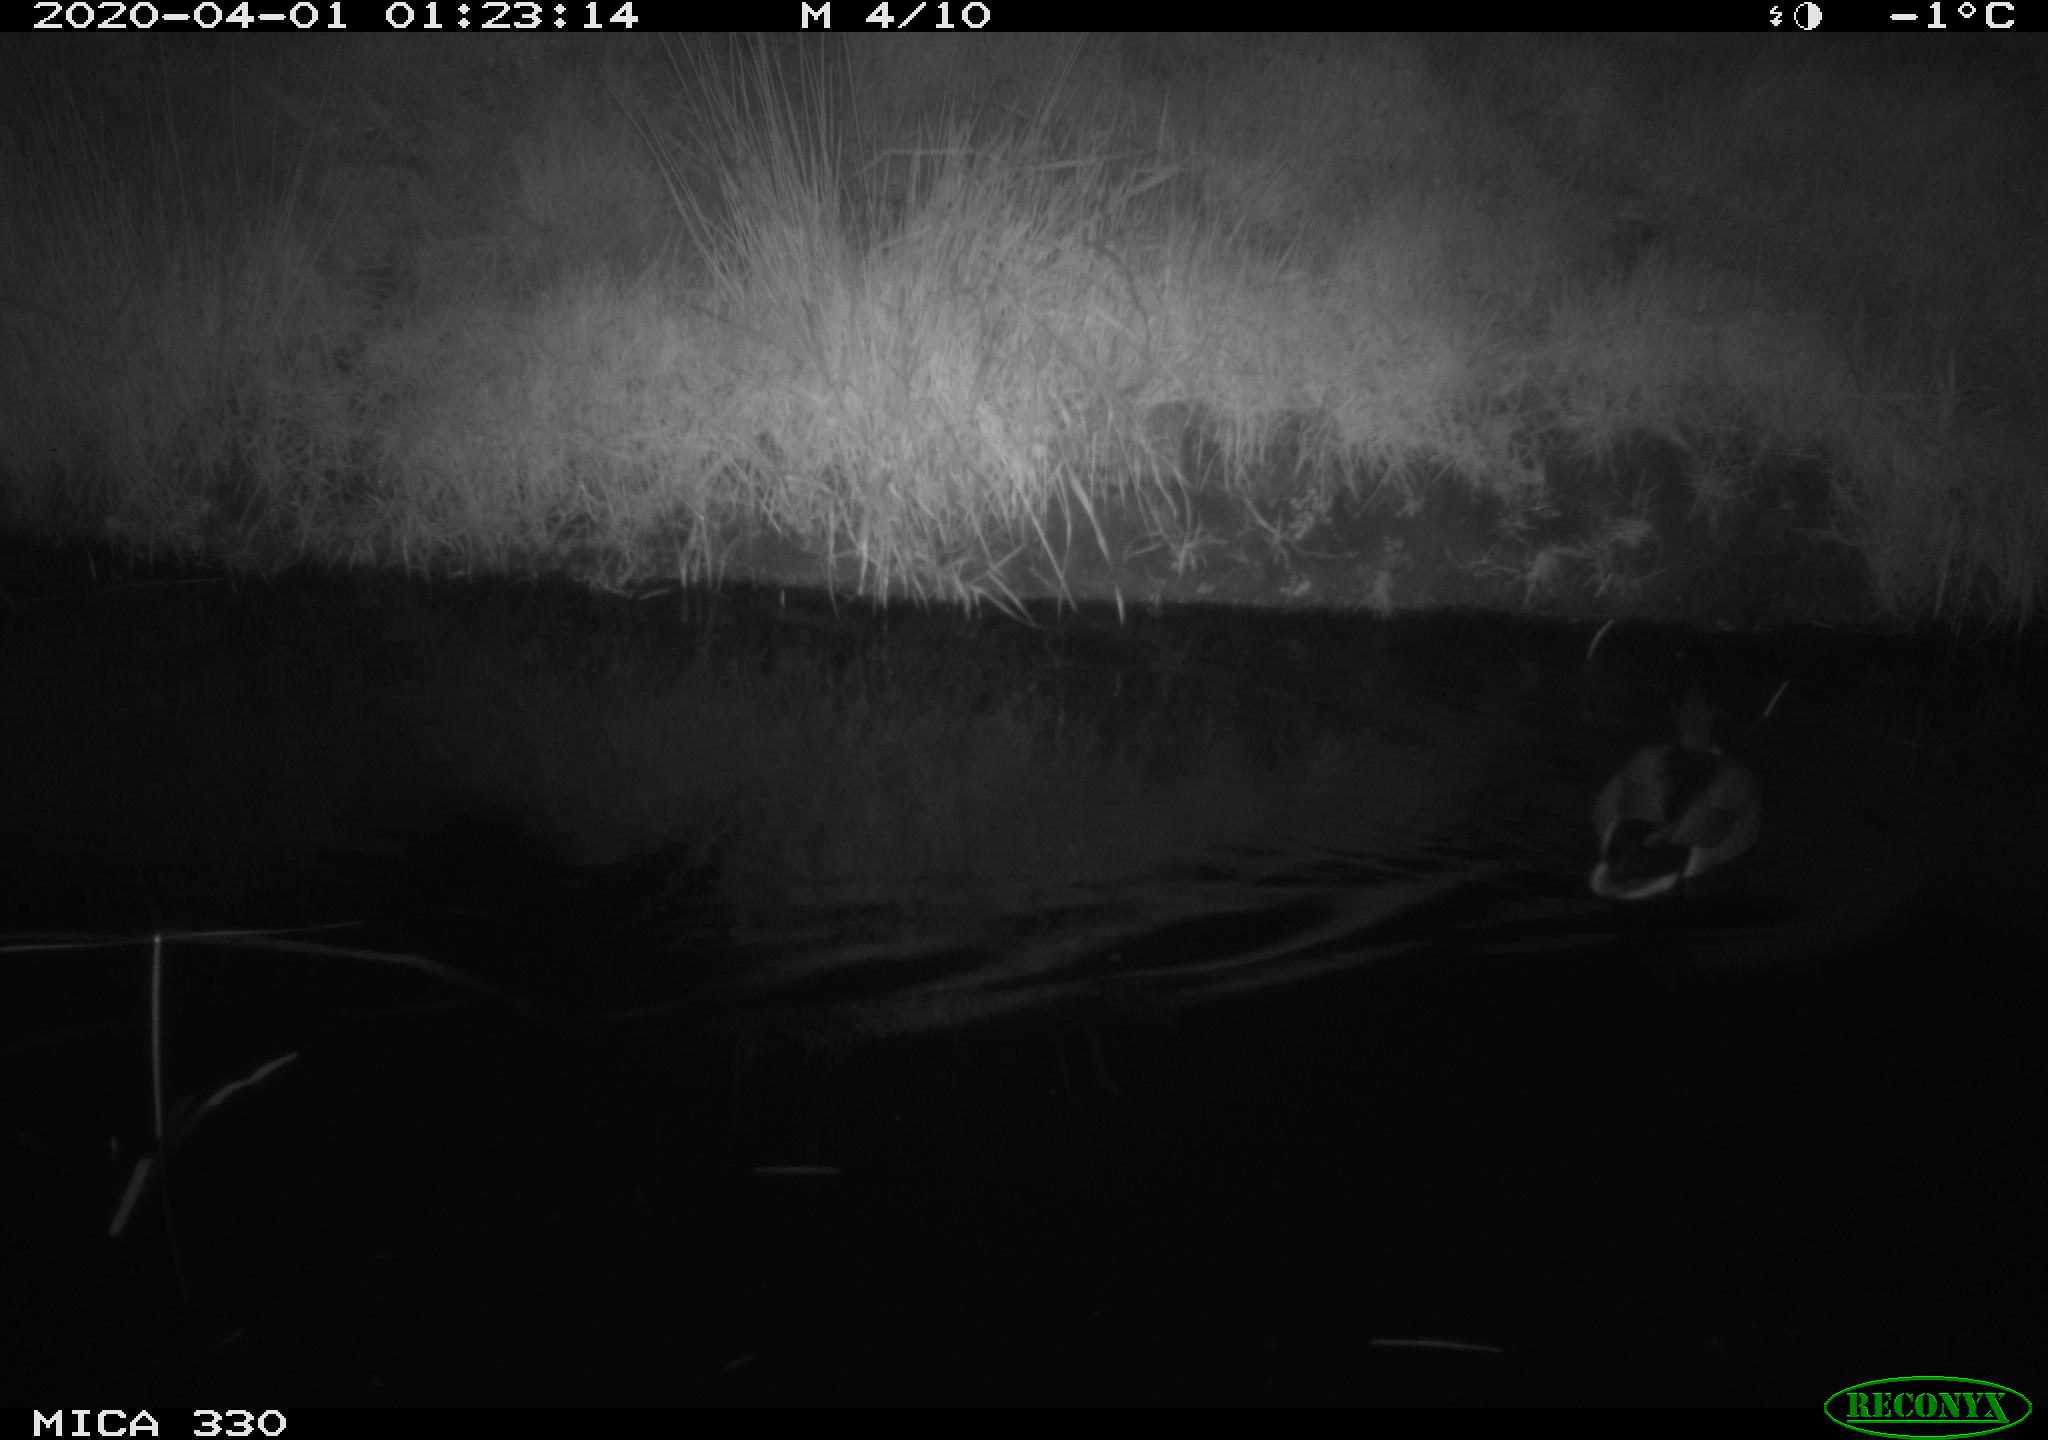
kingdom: Animalia
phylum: Chordata
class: Aves
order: Anseriformes
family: Anatidae
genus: Anas
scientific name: Anas platyrhynchos
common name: Mallard
